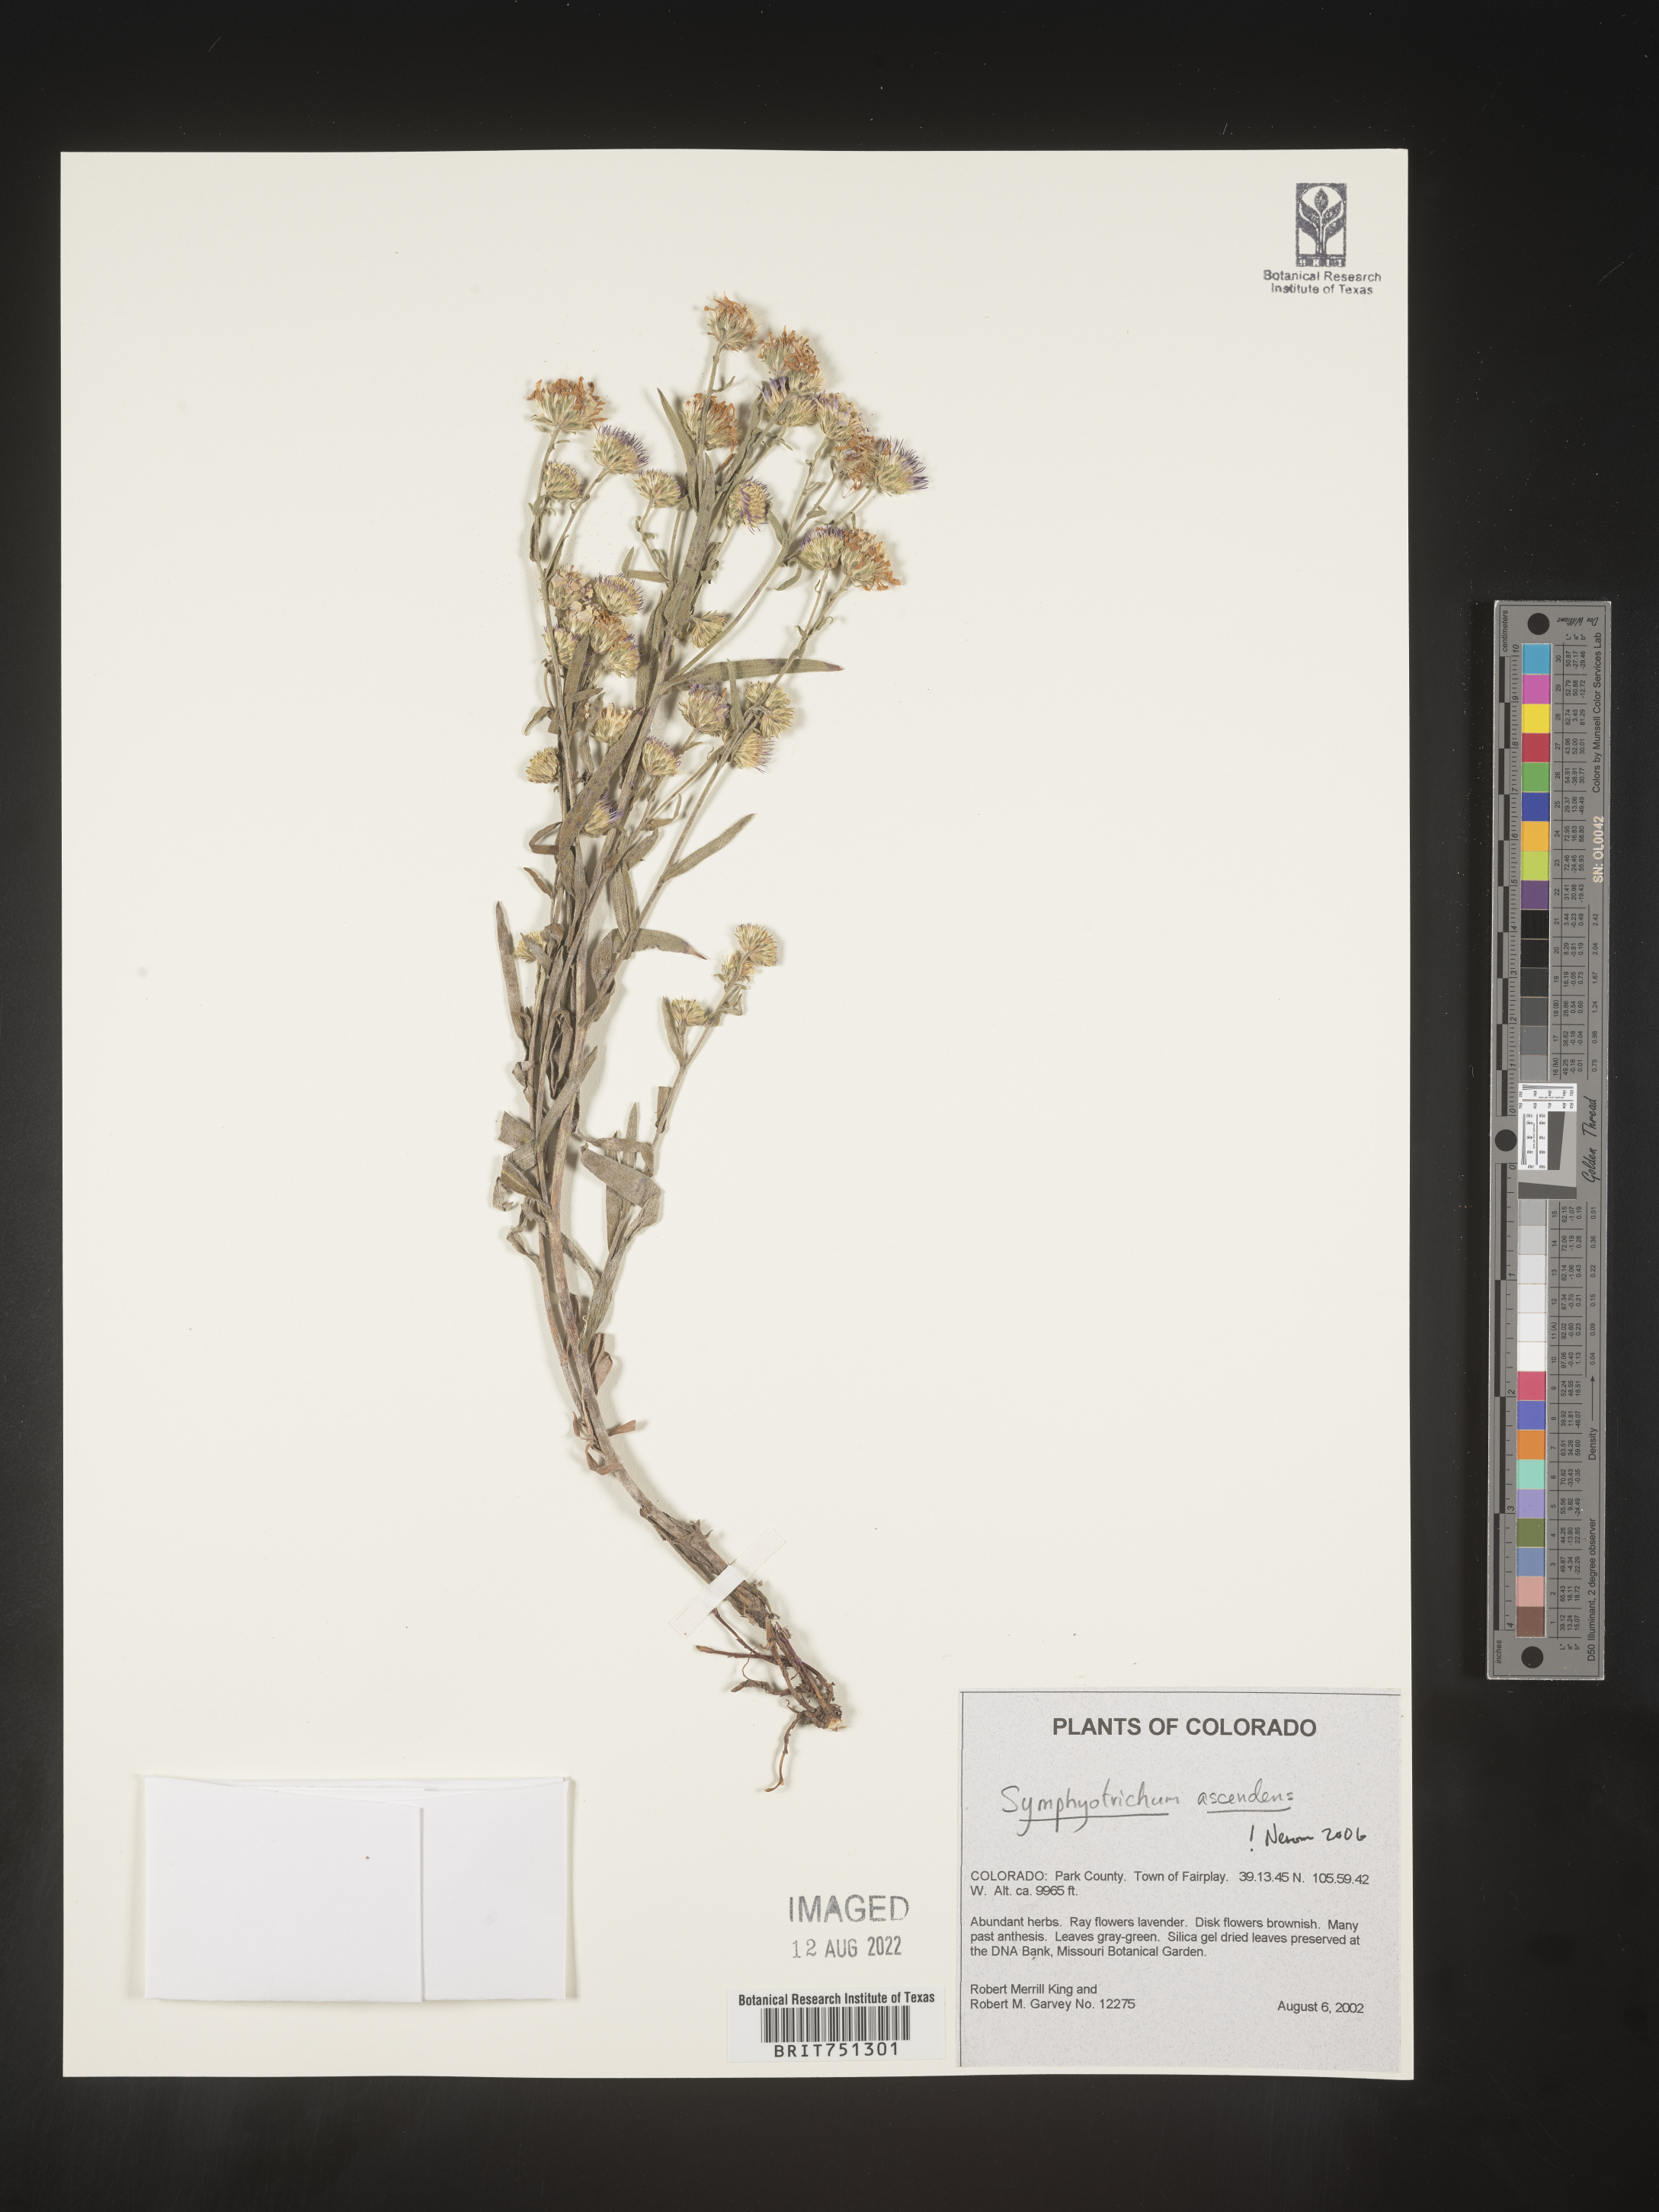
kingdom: Plantae
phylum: Tracheophyta
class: Magnoliopsida
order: Asterales
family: Asteraceae
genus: Symphyotrichum
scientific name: Symphyotrichum ascendens
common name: Intermountain aster
